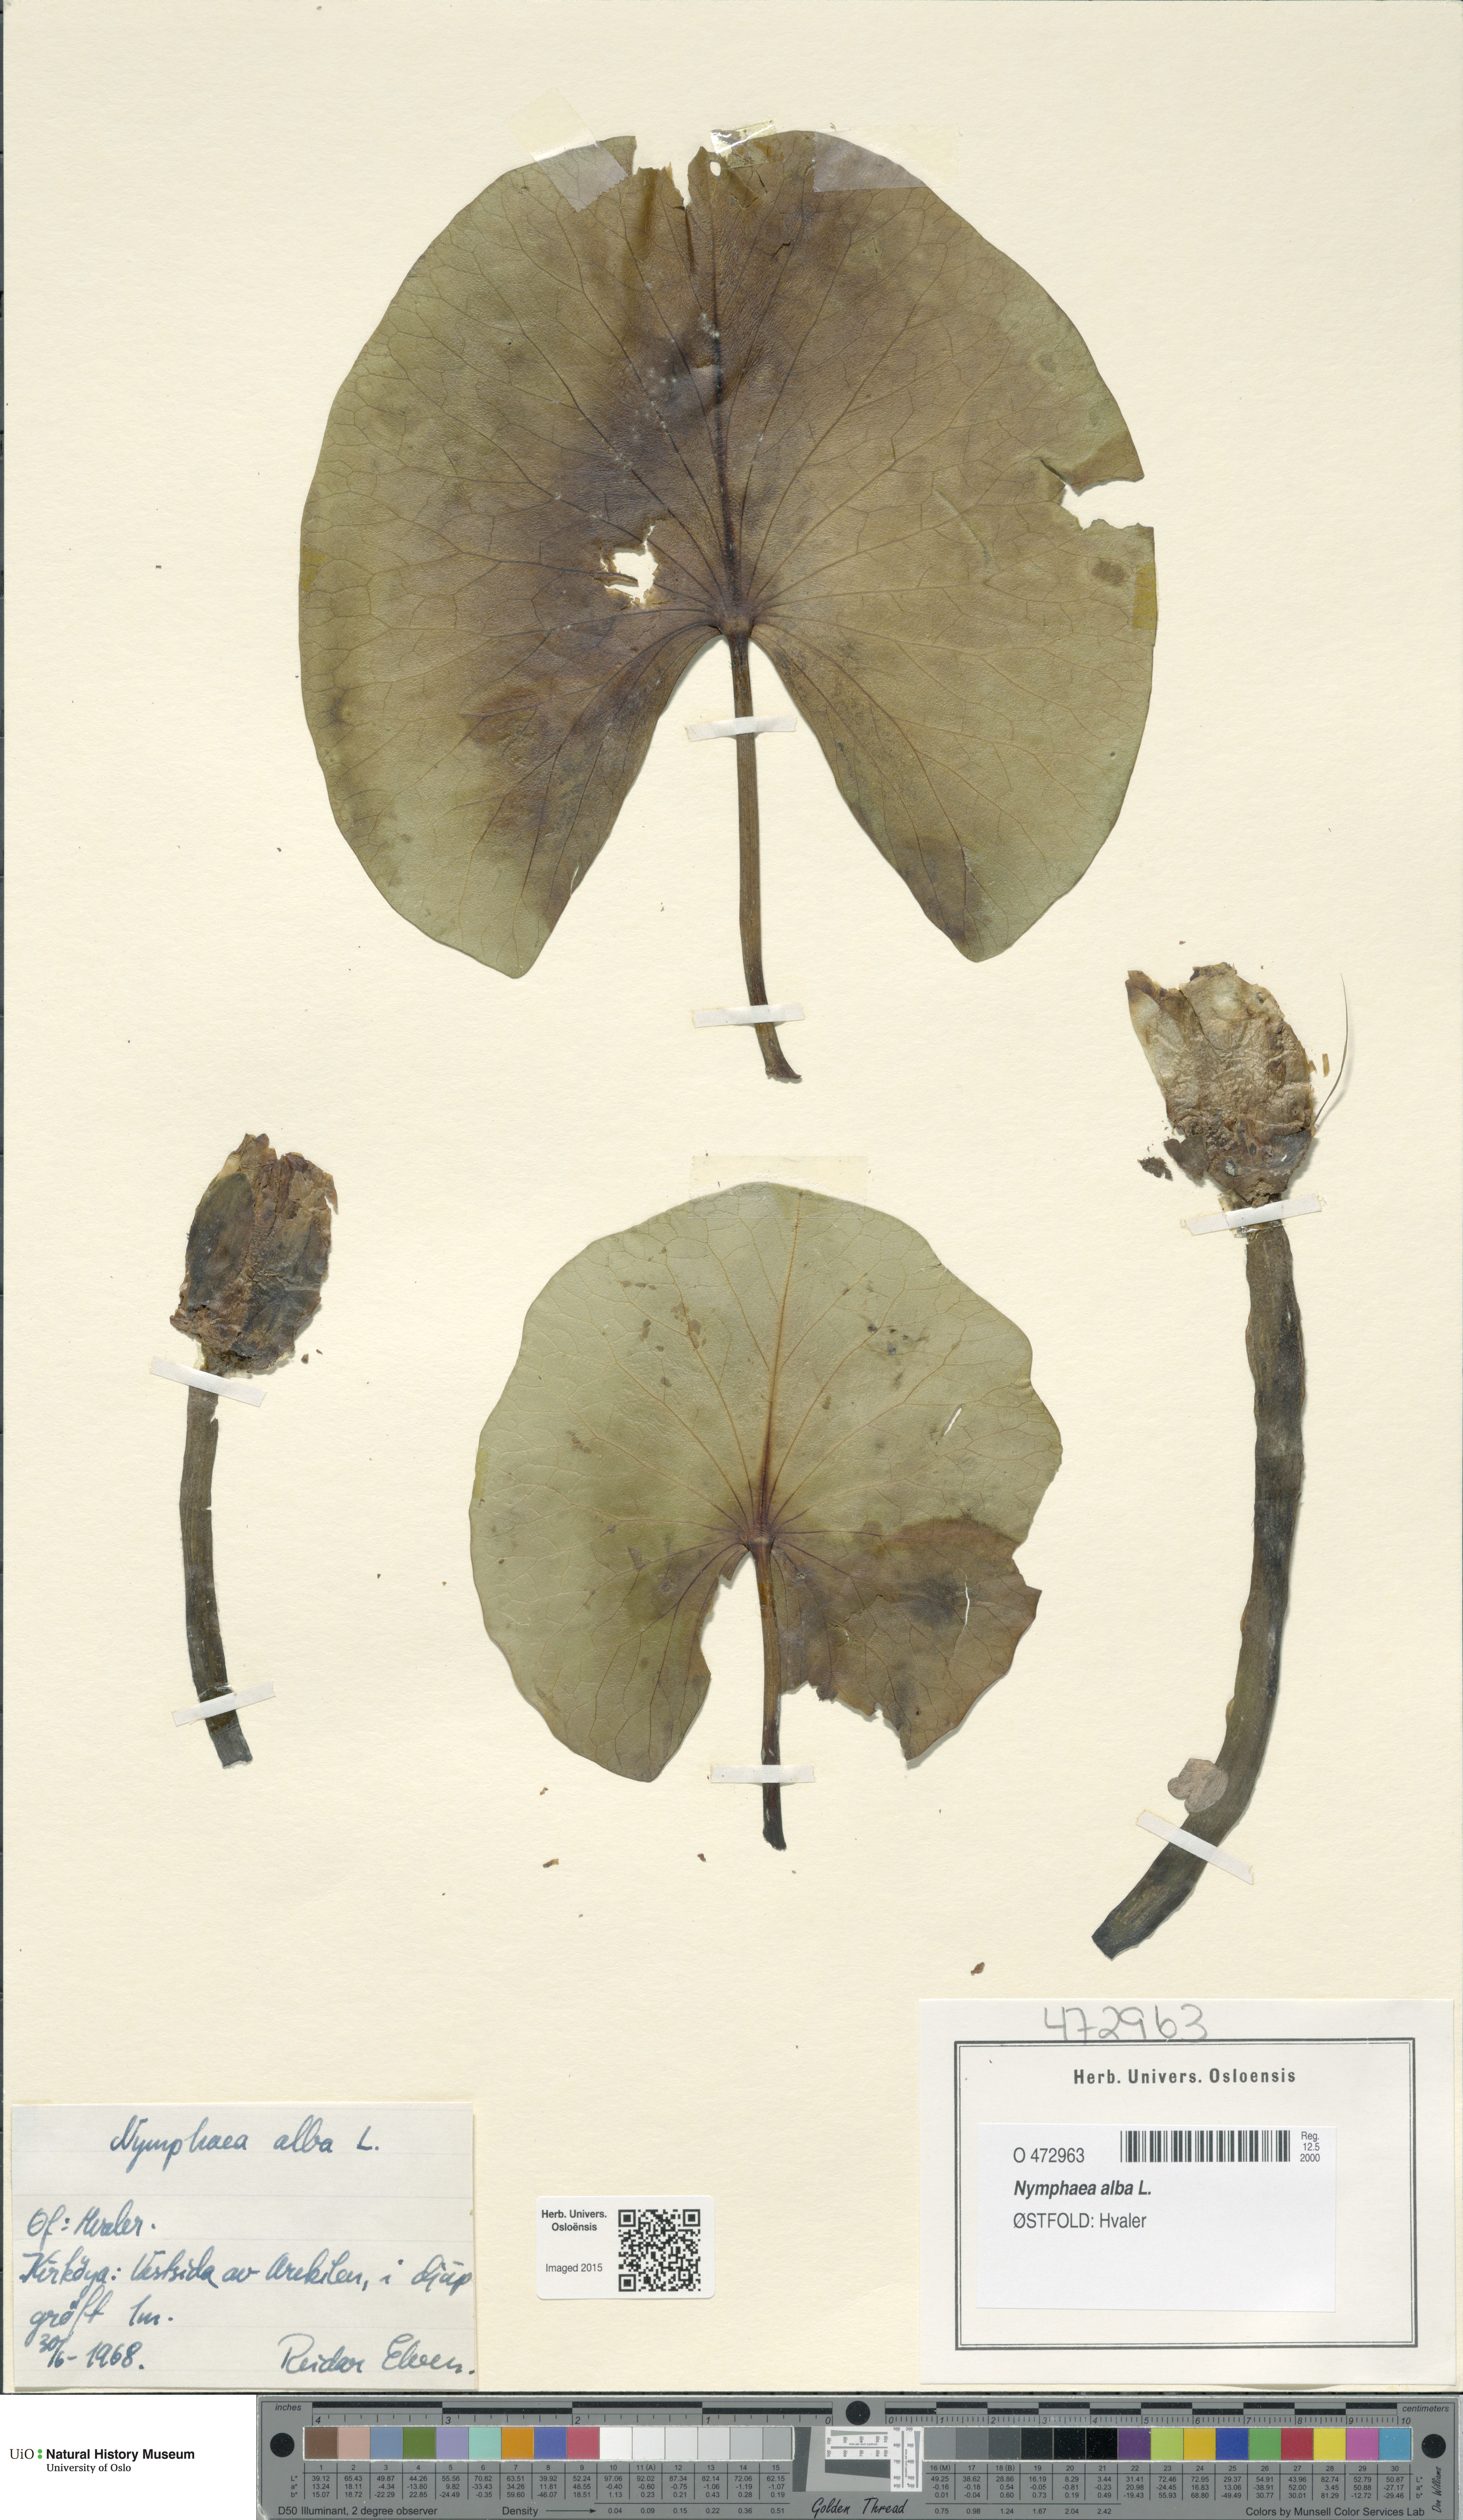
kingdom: Plantae
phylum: Tracheophyta
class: Magnoliopsida
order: Nymphaeales
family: Nymphaeaceae
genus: Nymphaea
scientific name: Nymphaea alba
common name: White water-lily
